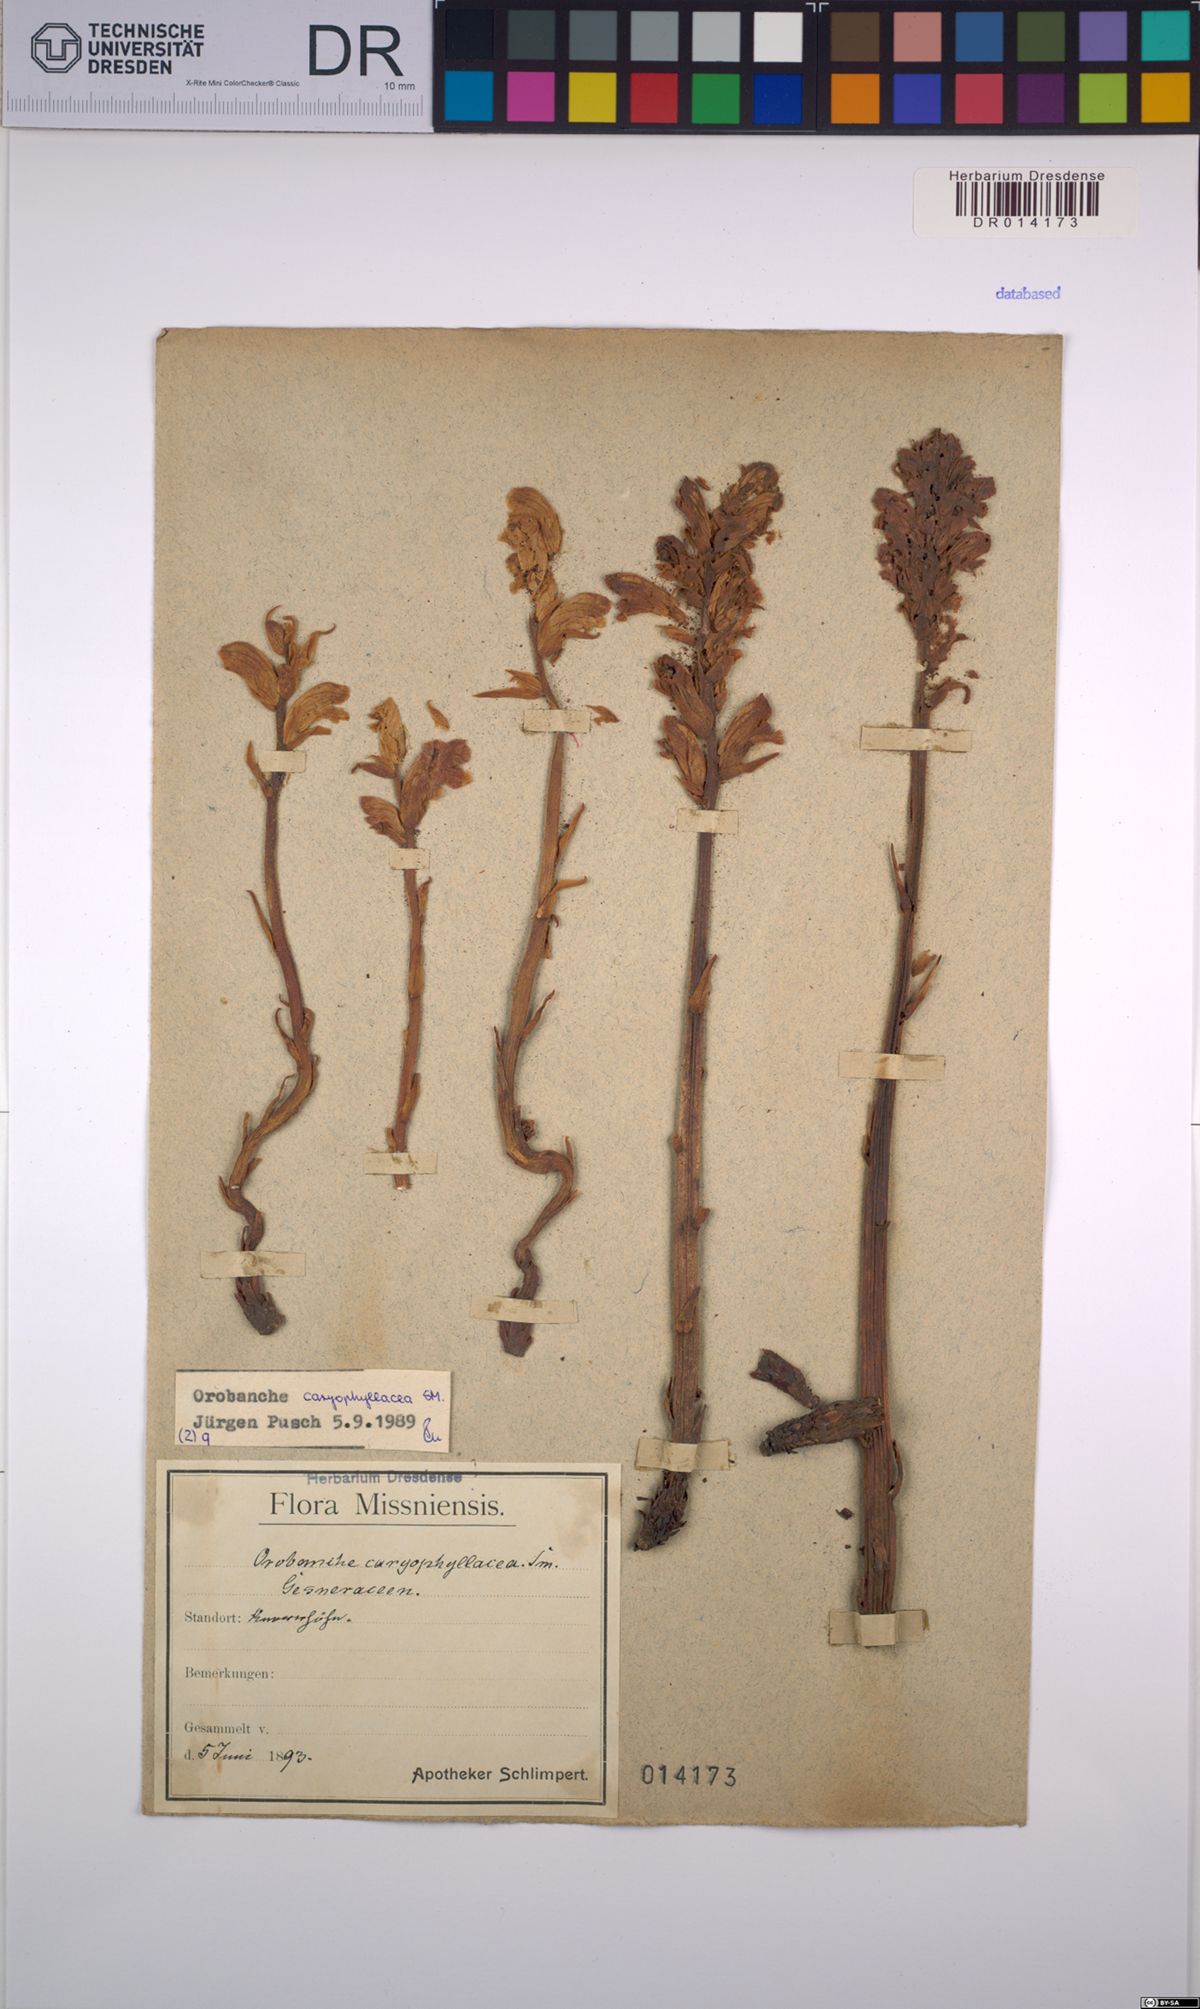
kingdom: Plantae
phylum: Tracheophyta
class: Magnoliopsida
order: Lamiales
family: Orobanchaceae
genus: Orobanche
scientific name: Orobanche caryophyllacea
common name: Bedstraw broomrape
